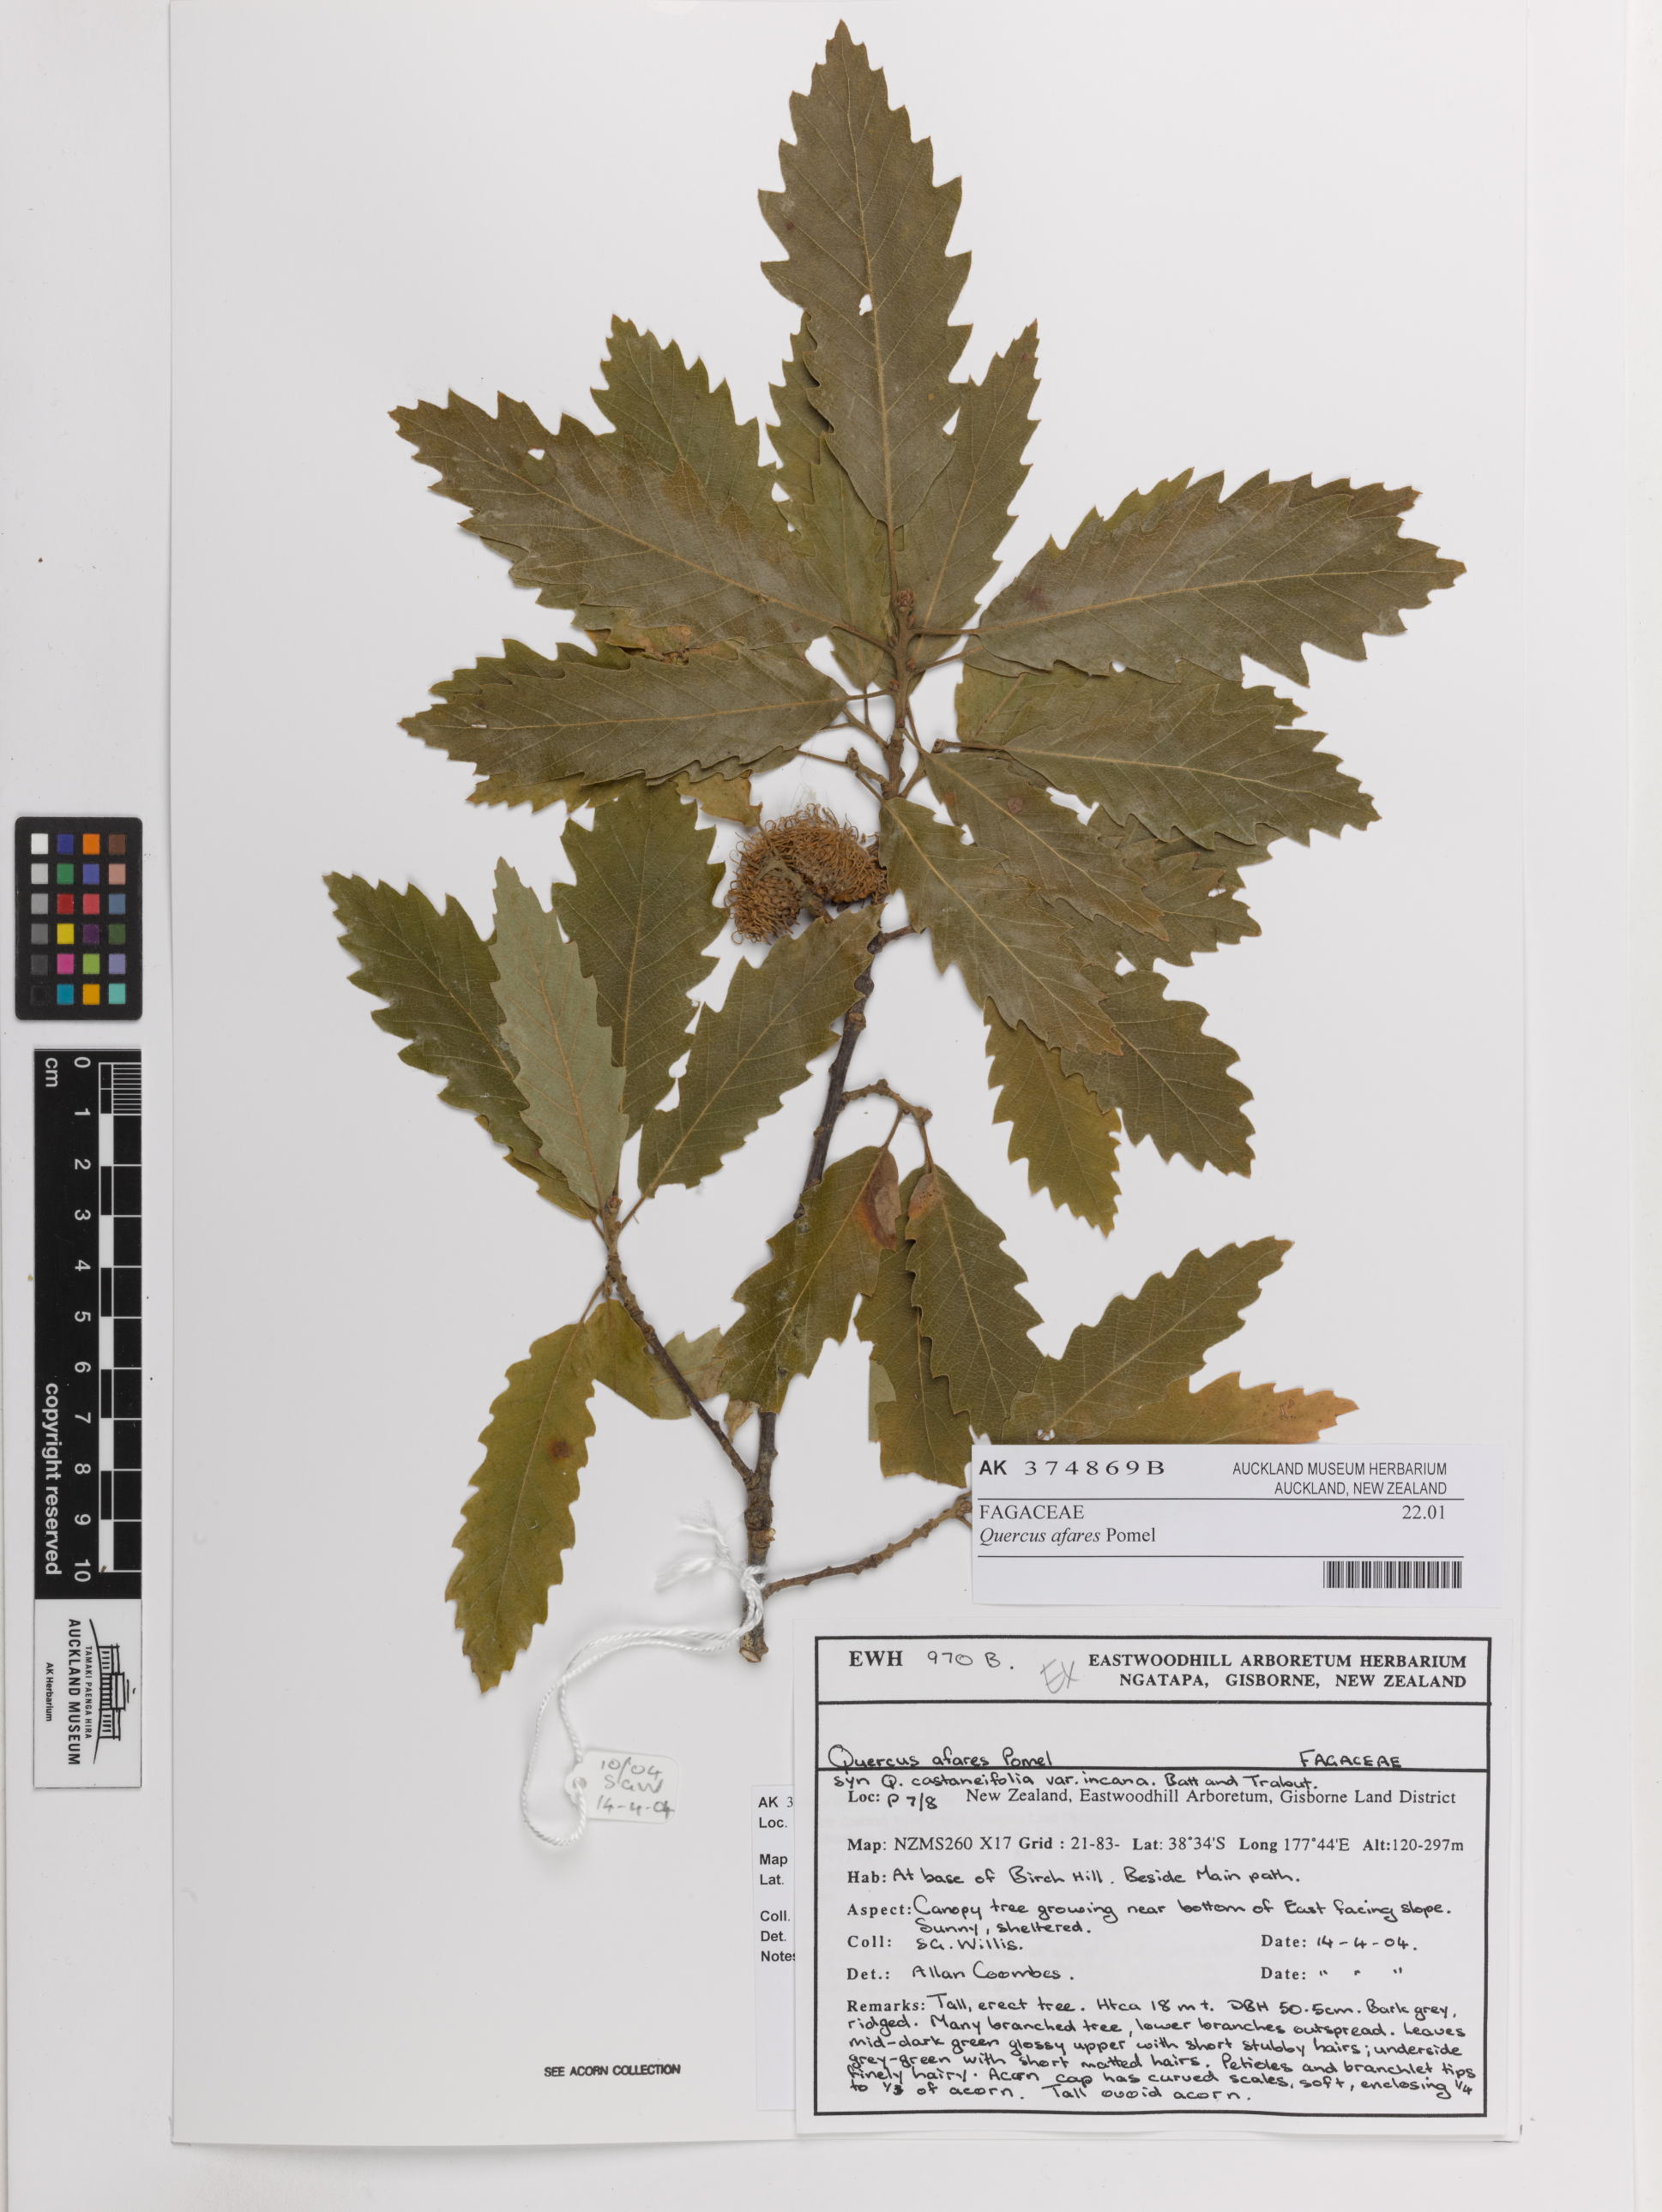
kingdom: Plantae
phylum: Tracheophyta
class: Magnoliopsida
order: Fagales
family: Fagaceae
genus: Quercus
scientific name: Quercus afares
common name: African oak
